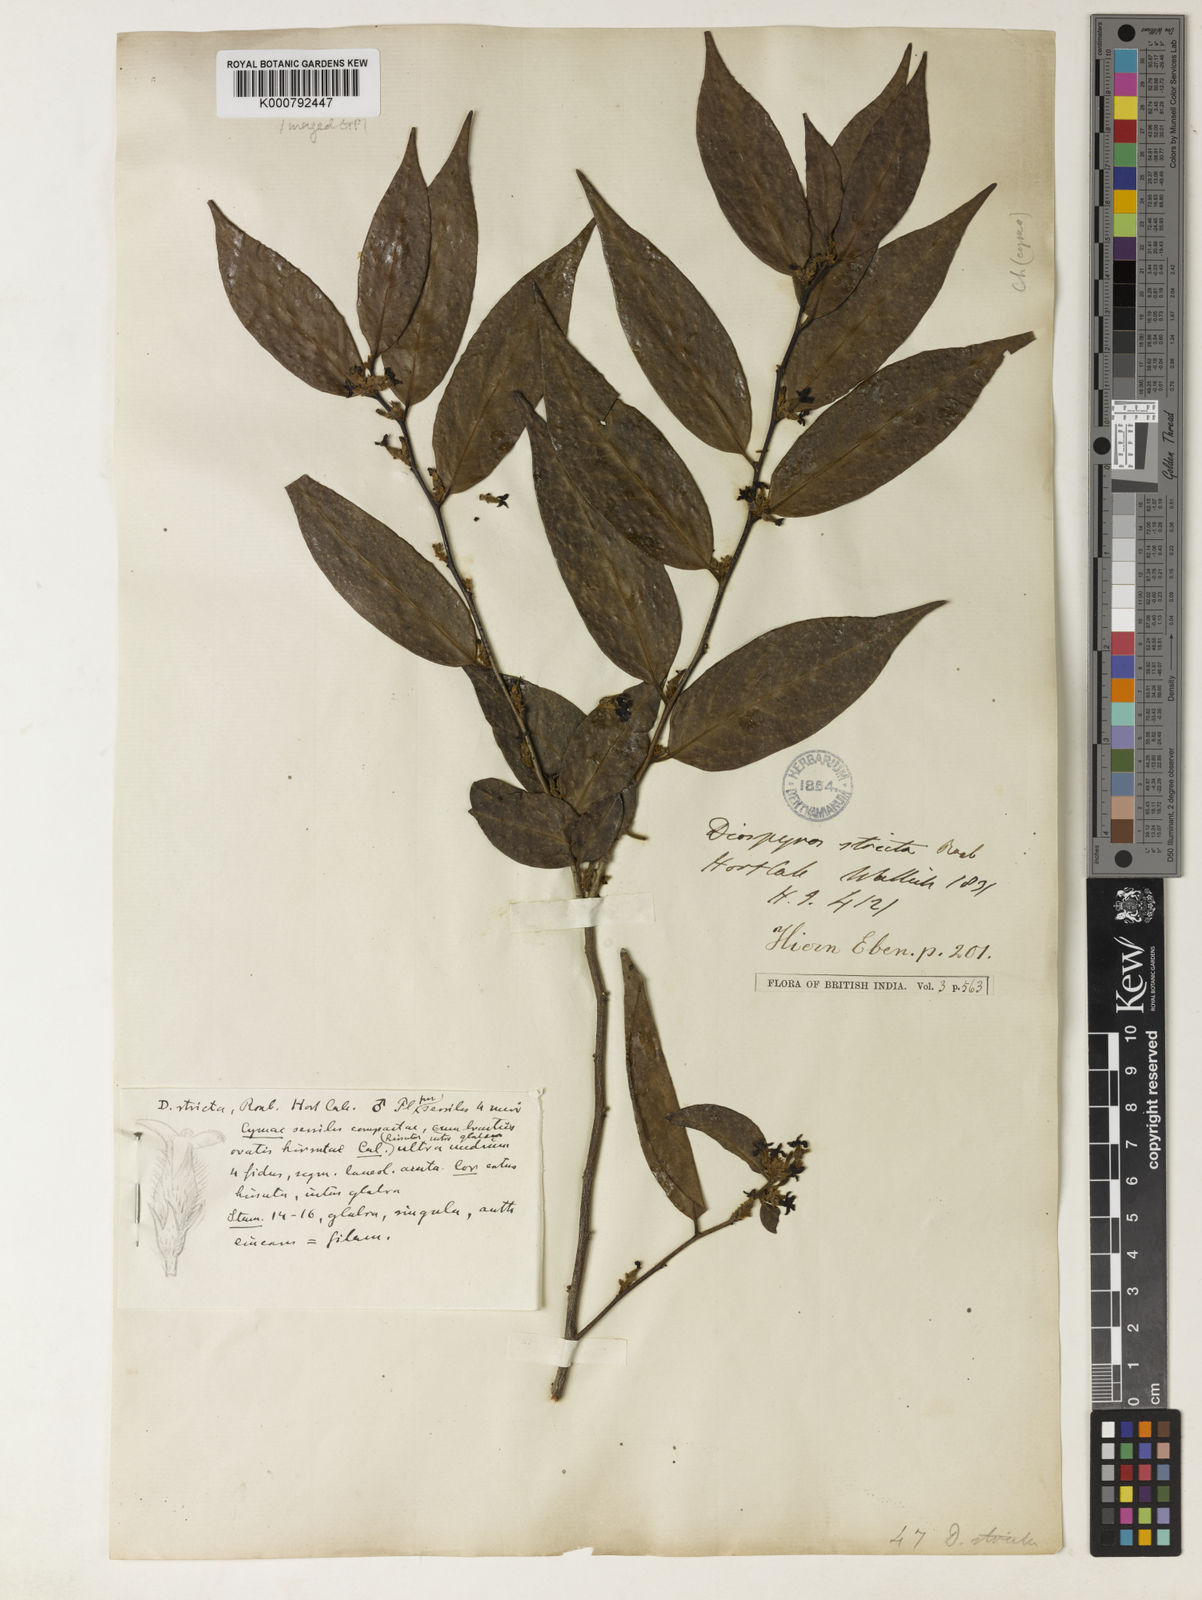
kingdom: Plantae
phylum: Tracheophyta
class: Magnoliopsida
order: Ericales
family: Ebenaceae
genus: Diospyros
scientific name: Diospyros stricta
